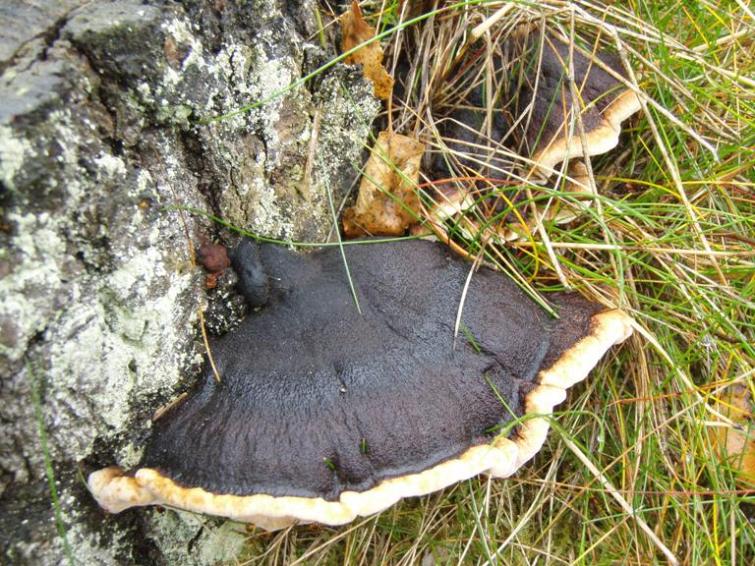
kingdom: Fungi
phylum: Basidiomycota
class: Agaricomycetes
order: Polyporales
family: Ischnodermataceae
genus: Ischnoderma
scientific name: Ischnoderma benzoinum
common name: gran-tjæreporesvamp
